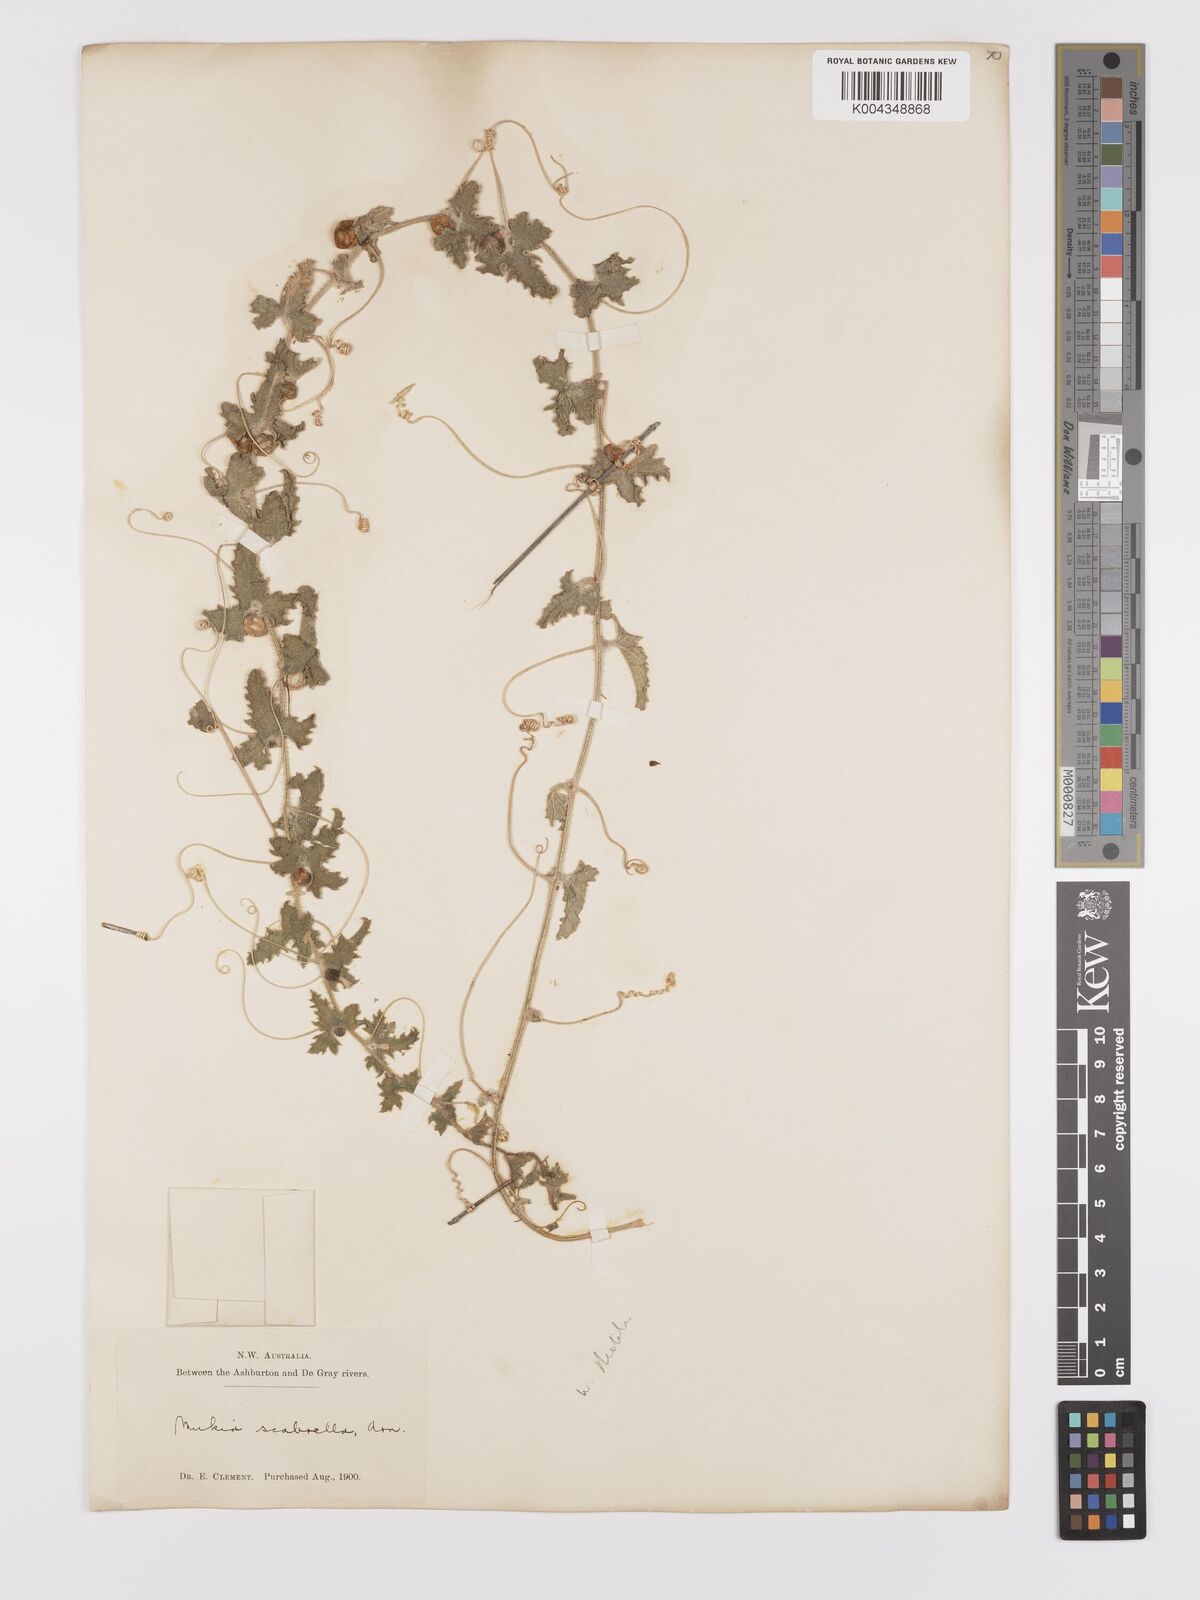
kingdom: Animalia
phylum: Arthropoda
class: Insecta
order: Lepidoptera
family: Crambidae
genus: Mukia
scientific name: Mukia
